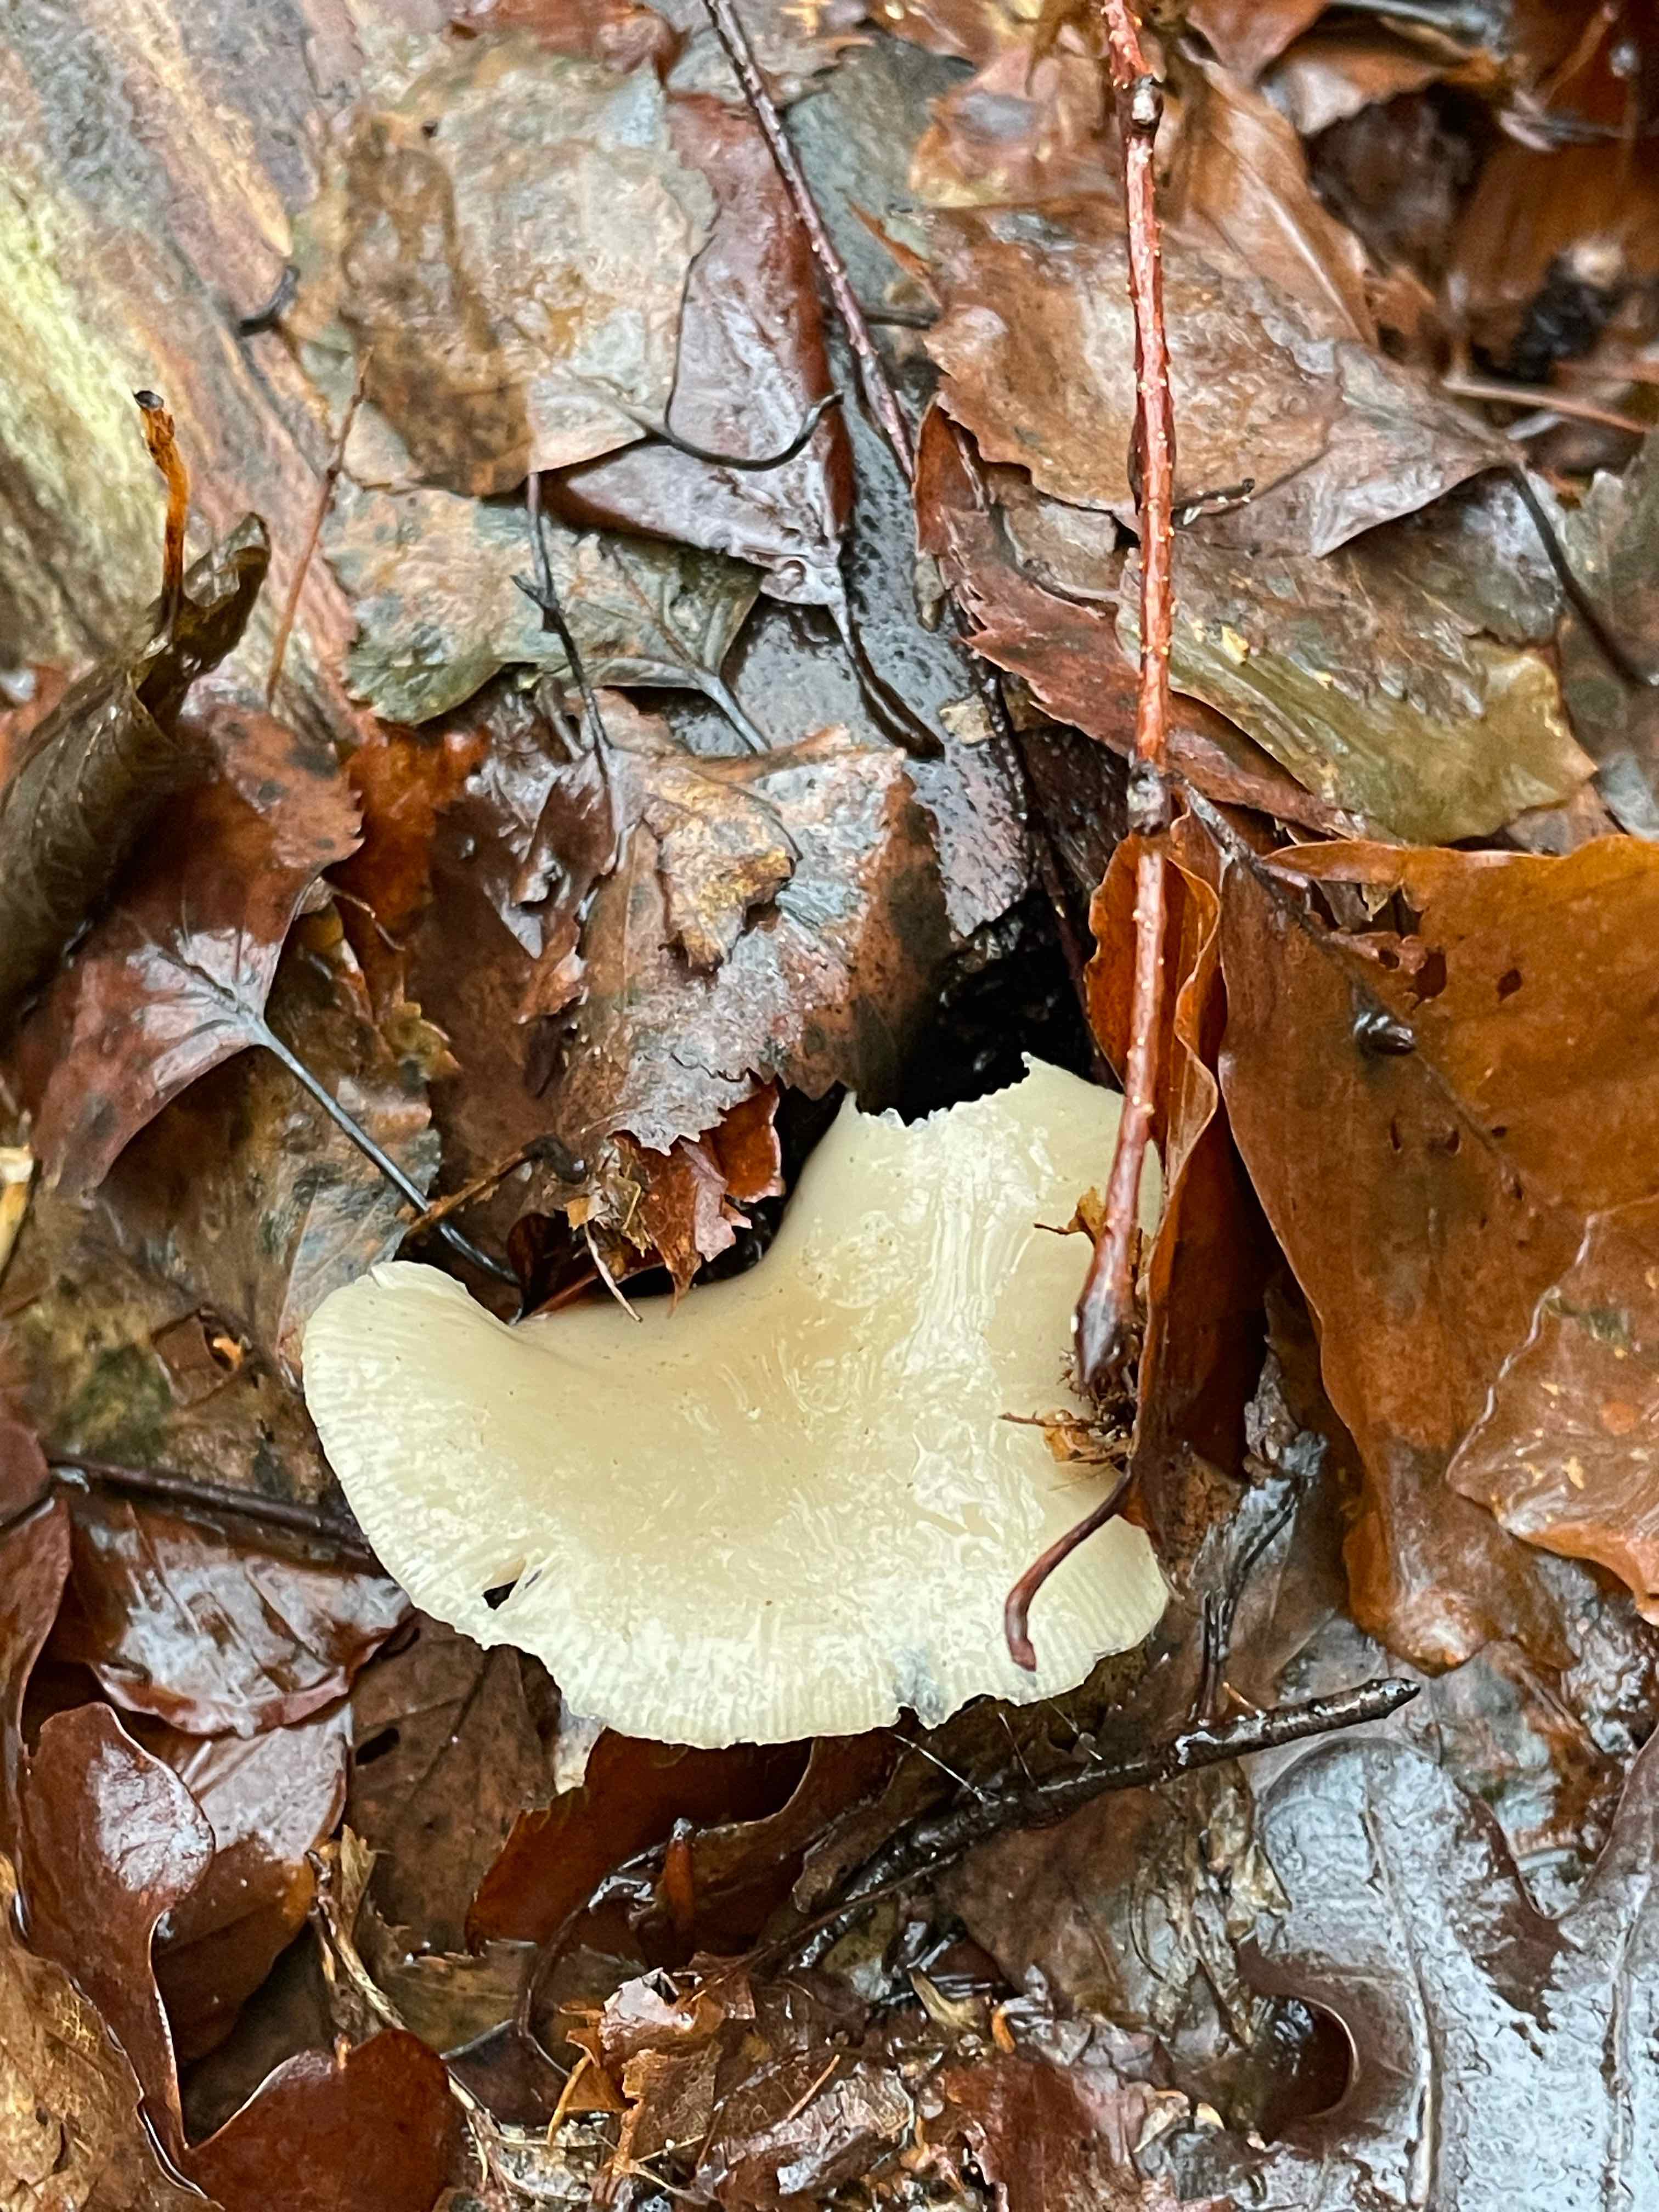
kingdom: Fungi
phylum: Basidiomycota
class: Agaricomycetes
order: Agaricales
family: Tricholomataceae
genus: Clitocybe
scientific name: Clitocybe
